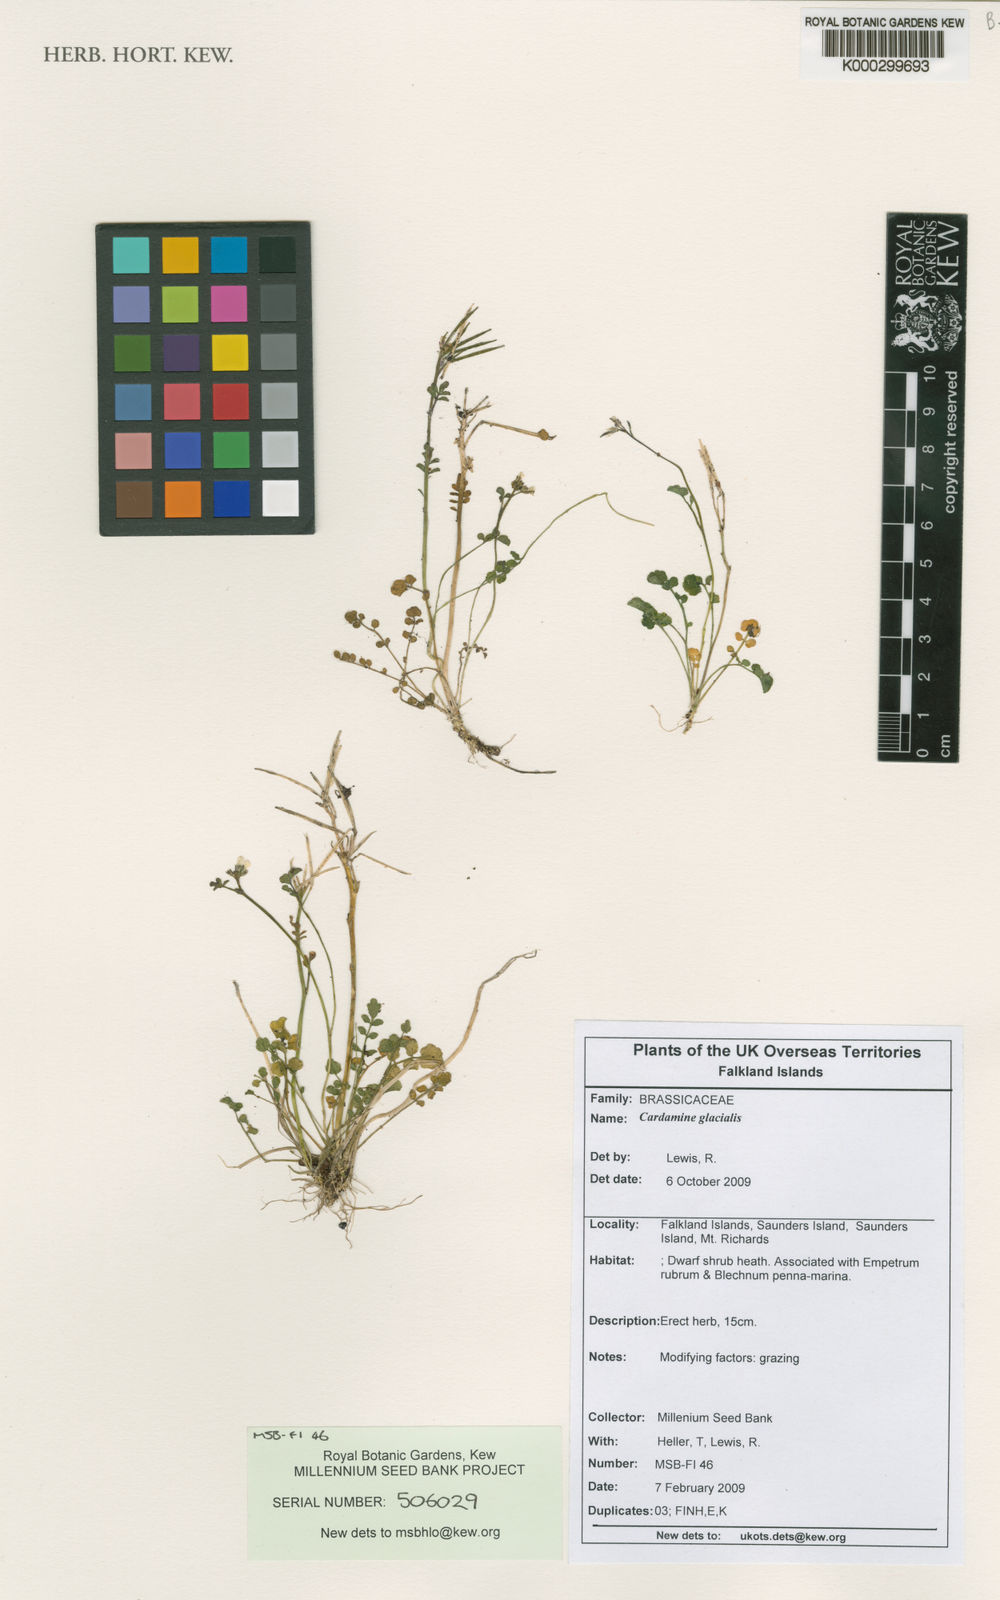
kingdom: Plantae
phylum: Tracheophyta
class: Magnoliopsida
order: Brassicales
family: Brassicaceae
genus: Cardamine
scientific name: Cardamine glacialis
